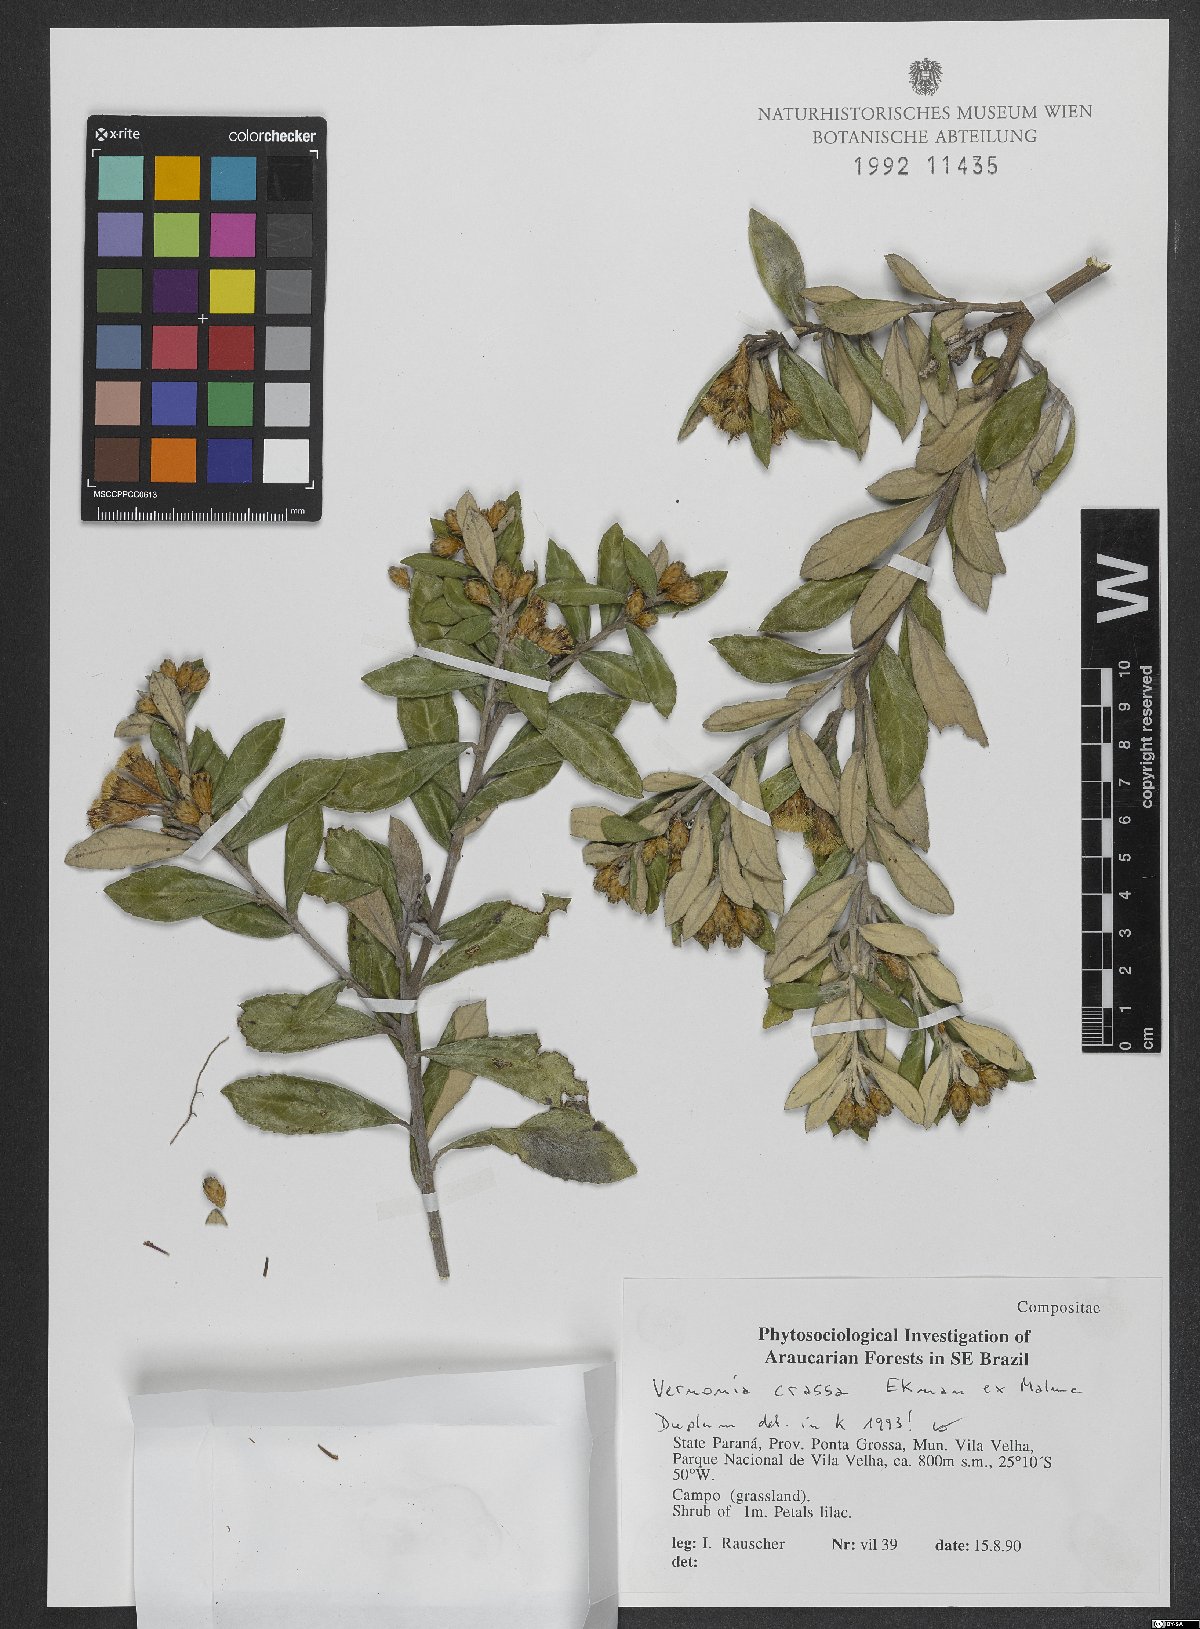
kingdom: Plantae
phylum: Tracheophyta
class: Magnoliopsida
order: Asterales
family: Asteraceae
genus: Vernonanthura
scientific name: Vernonanthura crassa
